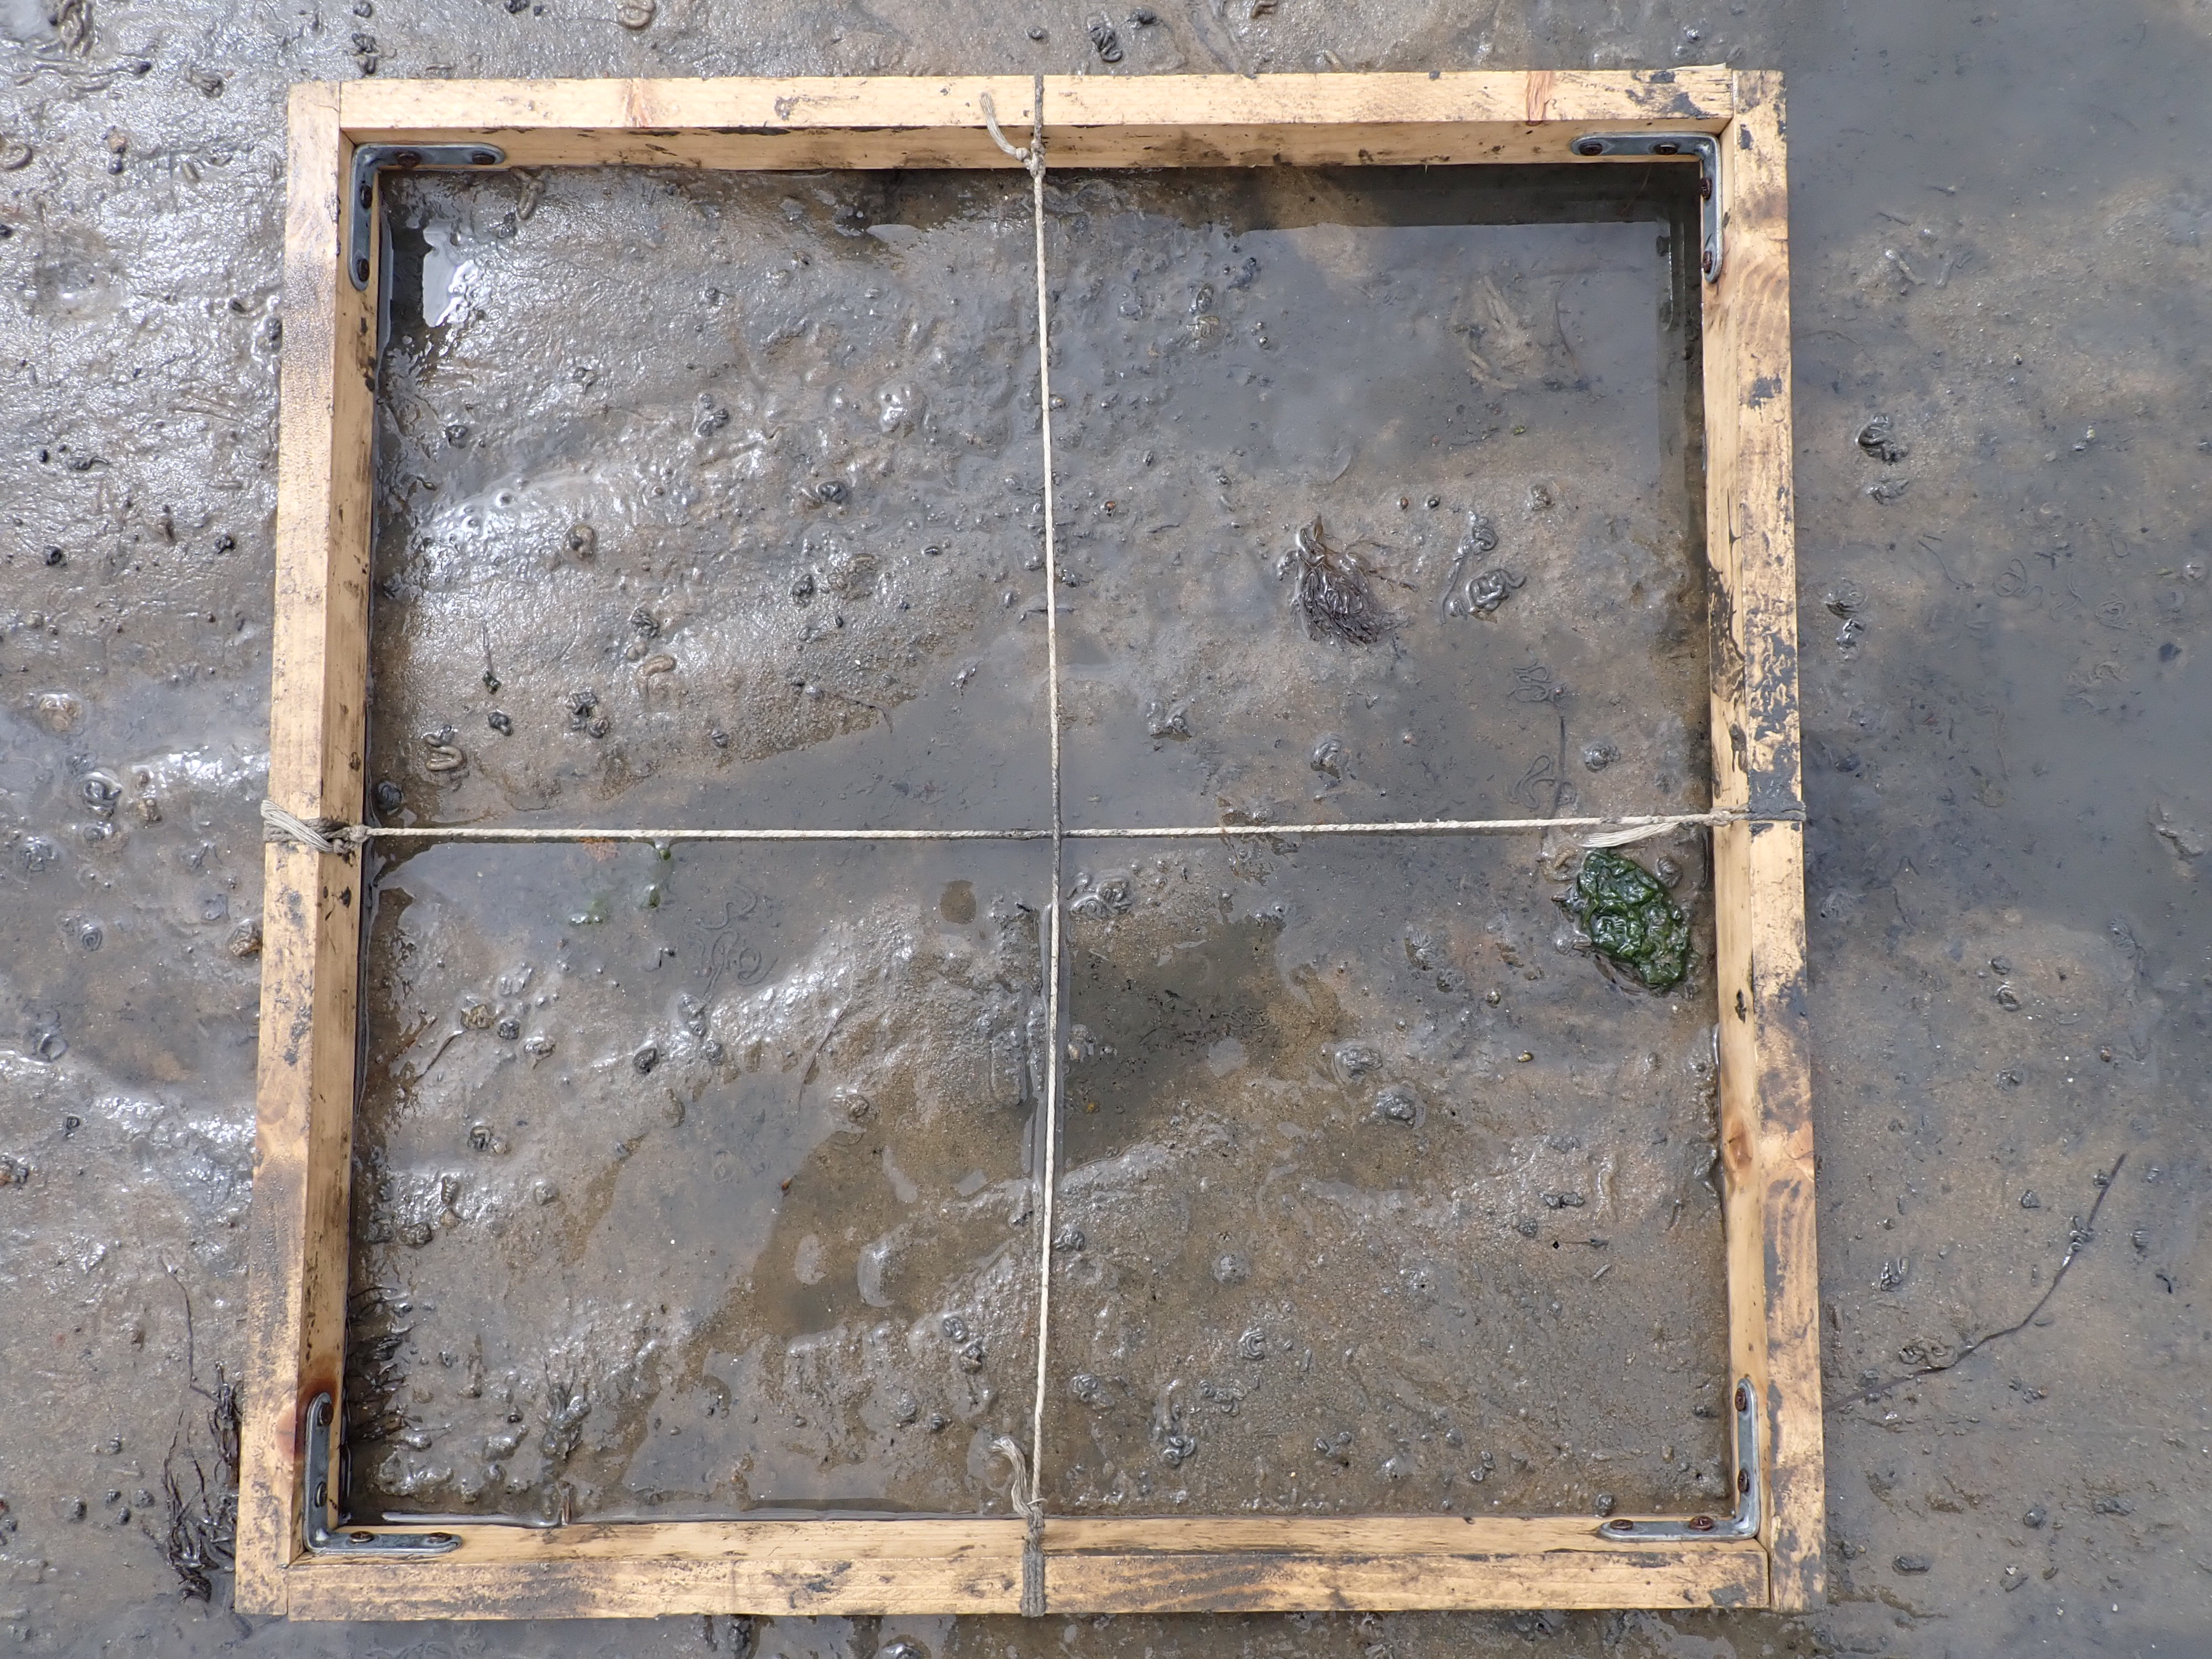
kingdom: Plantae
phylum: Chlorophyta
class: Ulvophyceae
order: Ulvales
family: Ulvaceae
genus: Ulva
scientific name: Ulva
